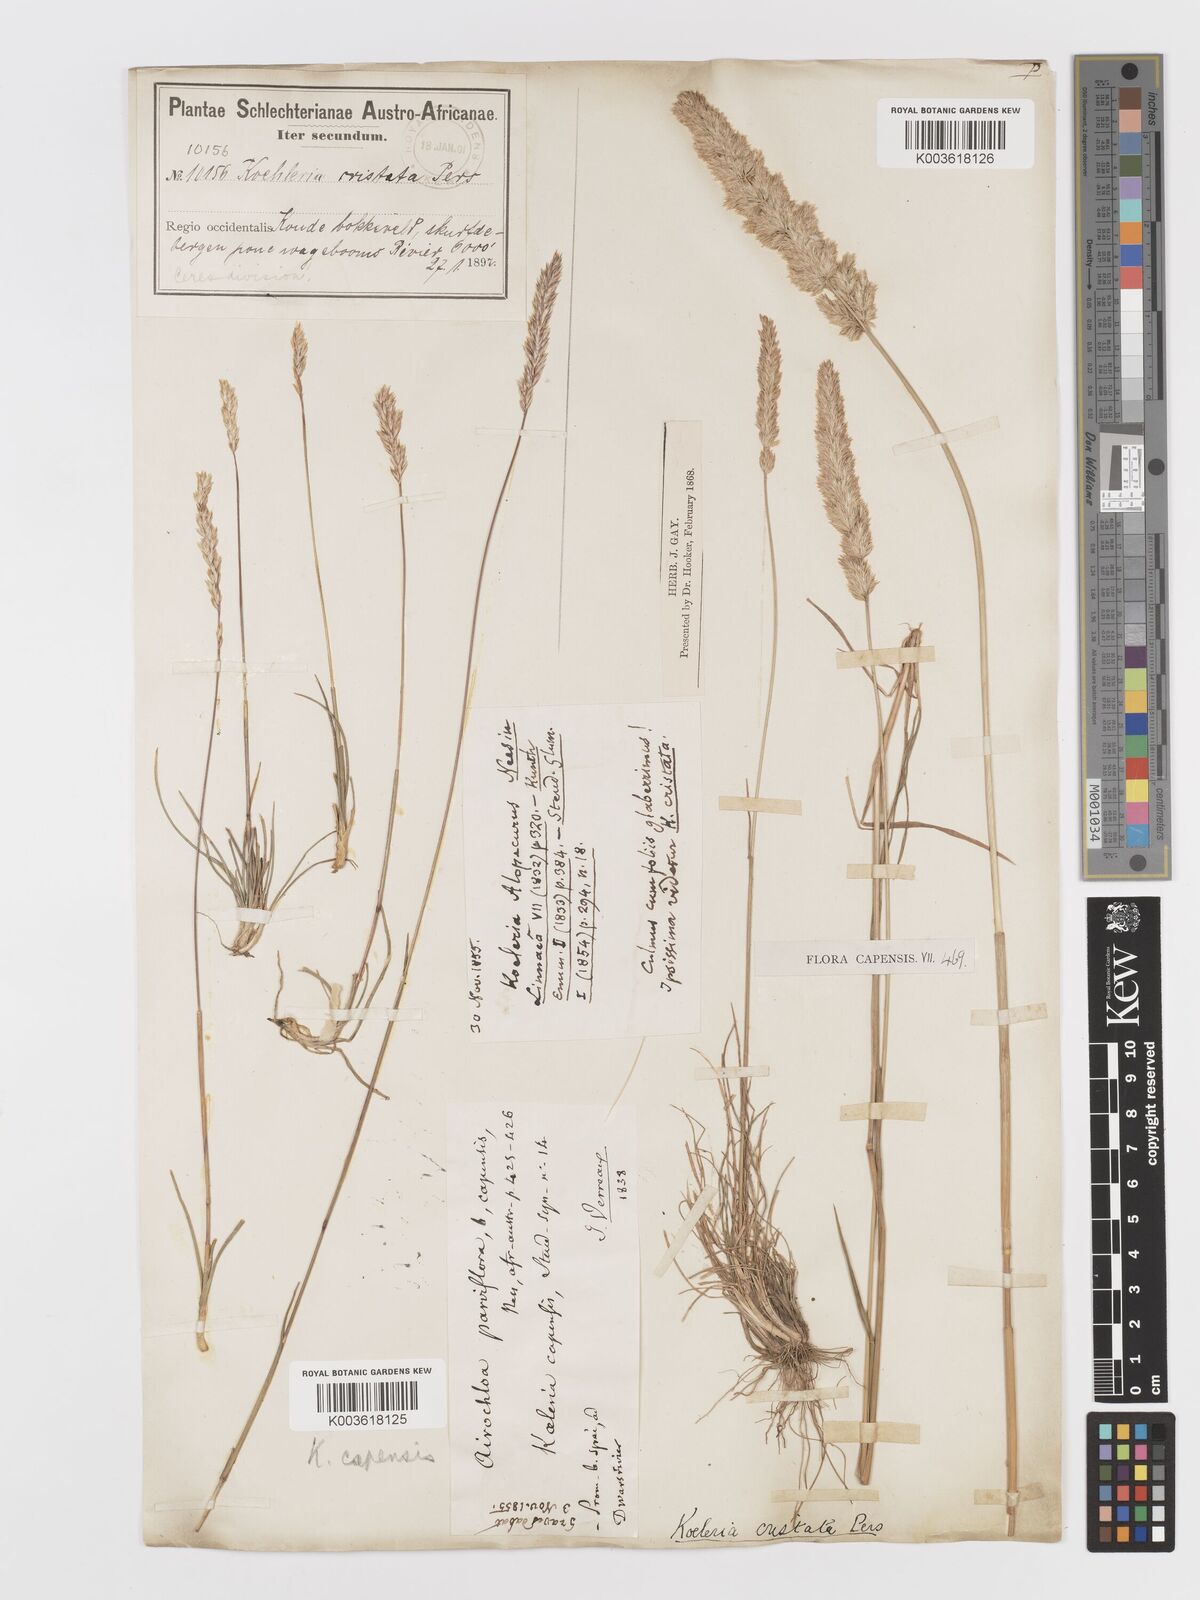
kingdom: Plantae
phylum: Tracheophyta
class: Liliopsida
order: Poales
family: Poaceae
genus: Koeleria
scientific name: Koeleria capensis
